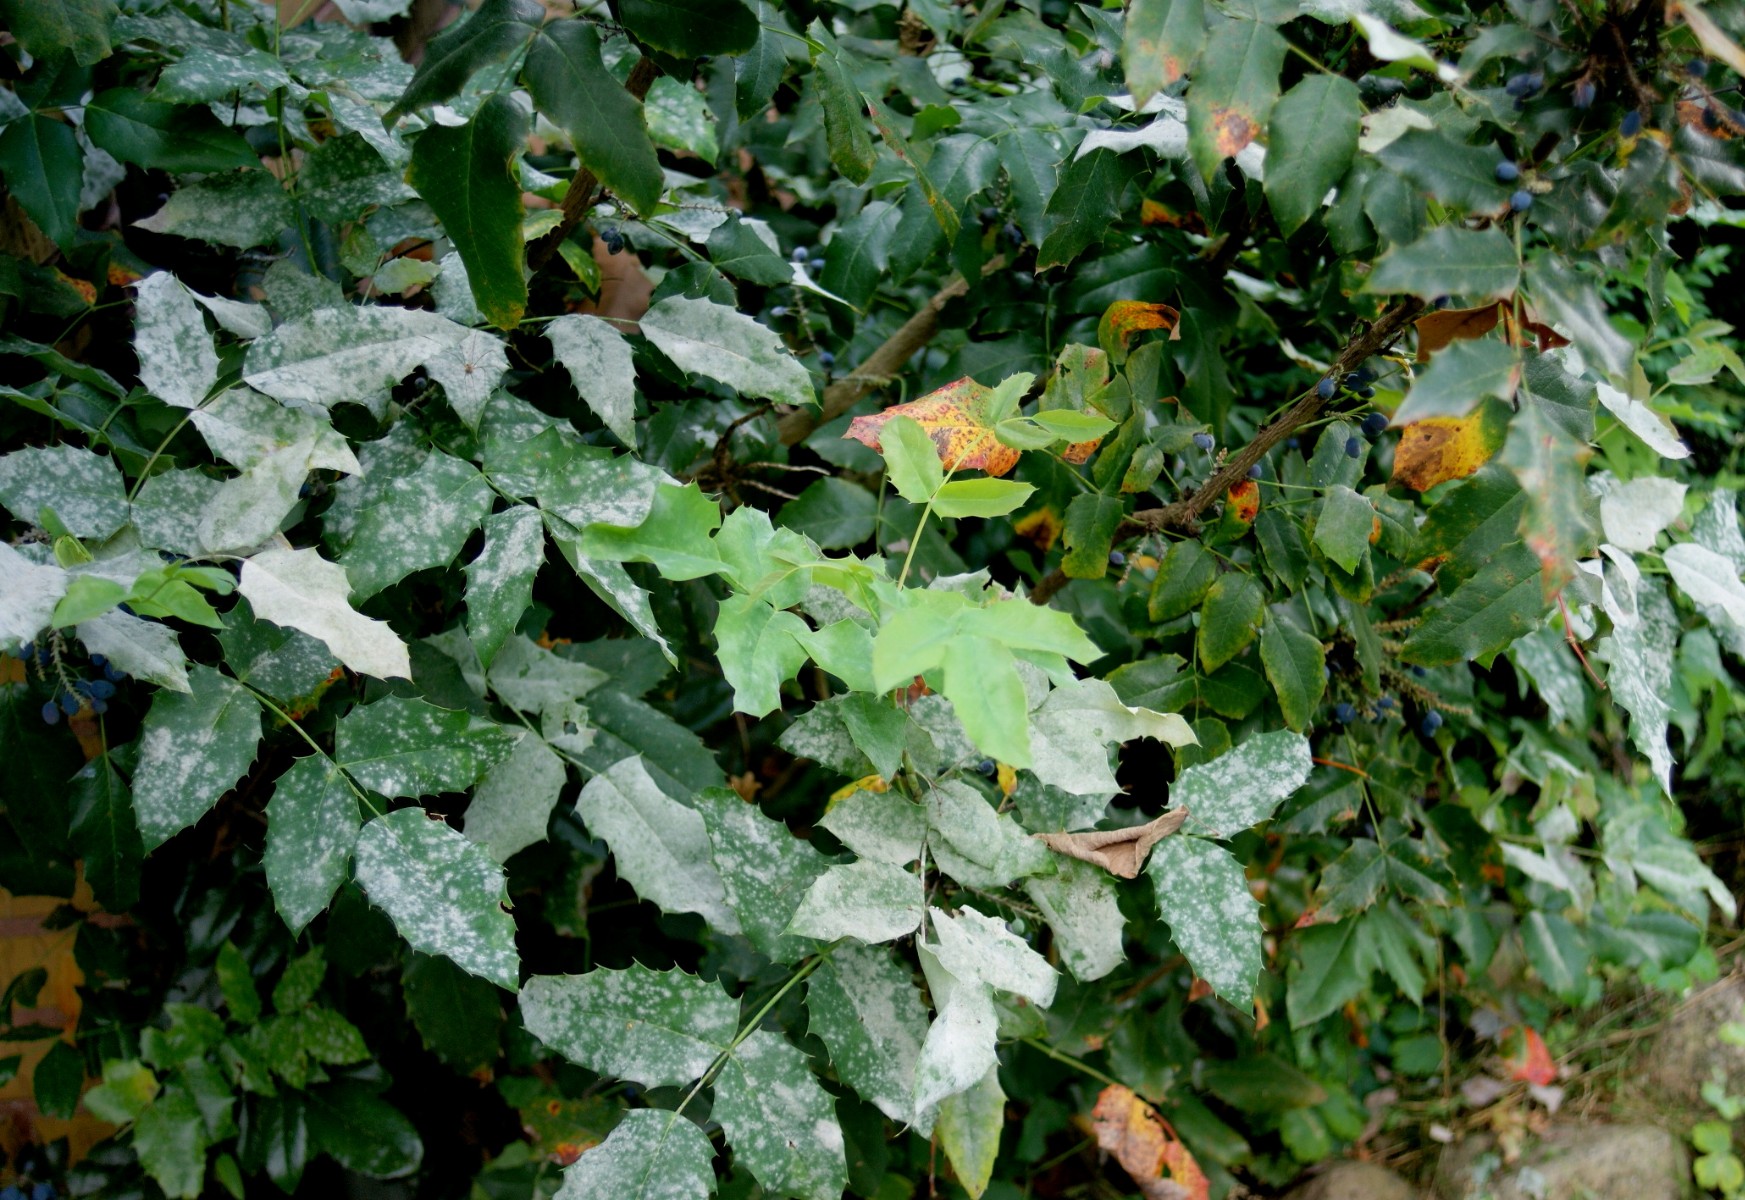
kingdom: Fungi
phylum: Ascomycota
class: Leotiomycetes
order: Helotiales
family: Erysiphaceae
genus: Erysiphe
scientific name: Erysiphe berberidis
